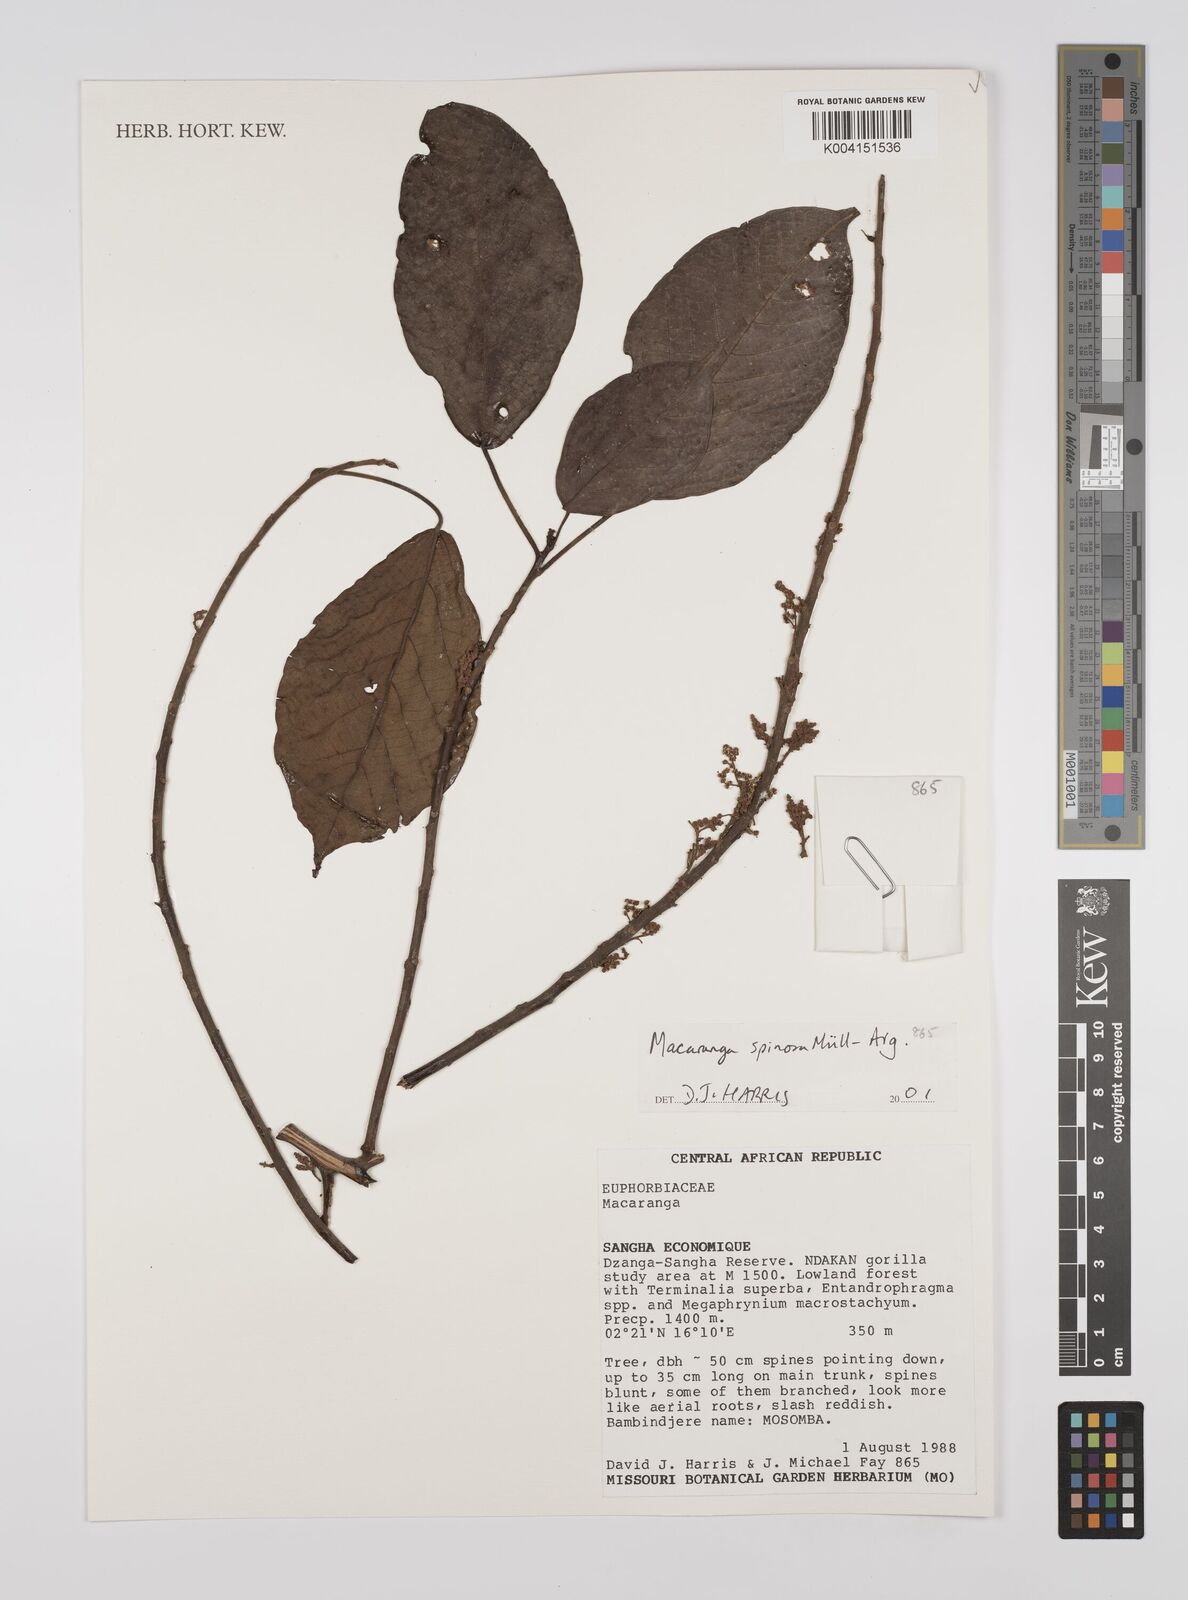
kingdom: Plantae
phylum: Tracheophyta
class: Magnoliopsida
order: Malpighiales
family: Euphorbiaceae
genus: Macaranga
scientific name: Macaranga spinosa
